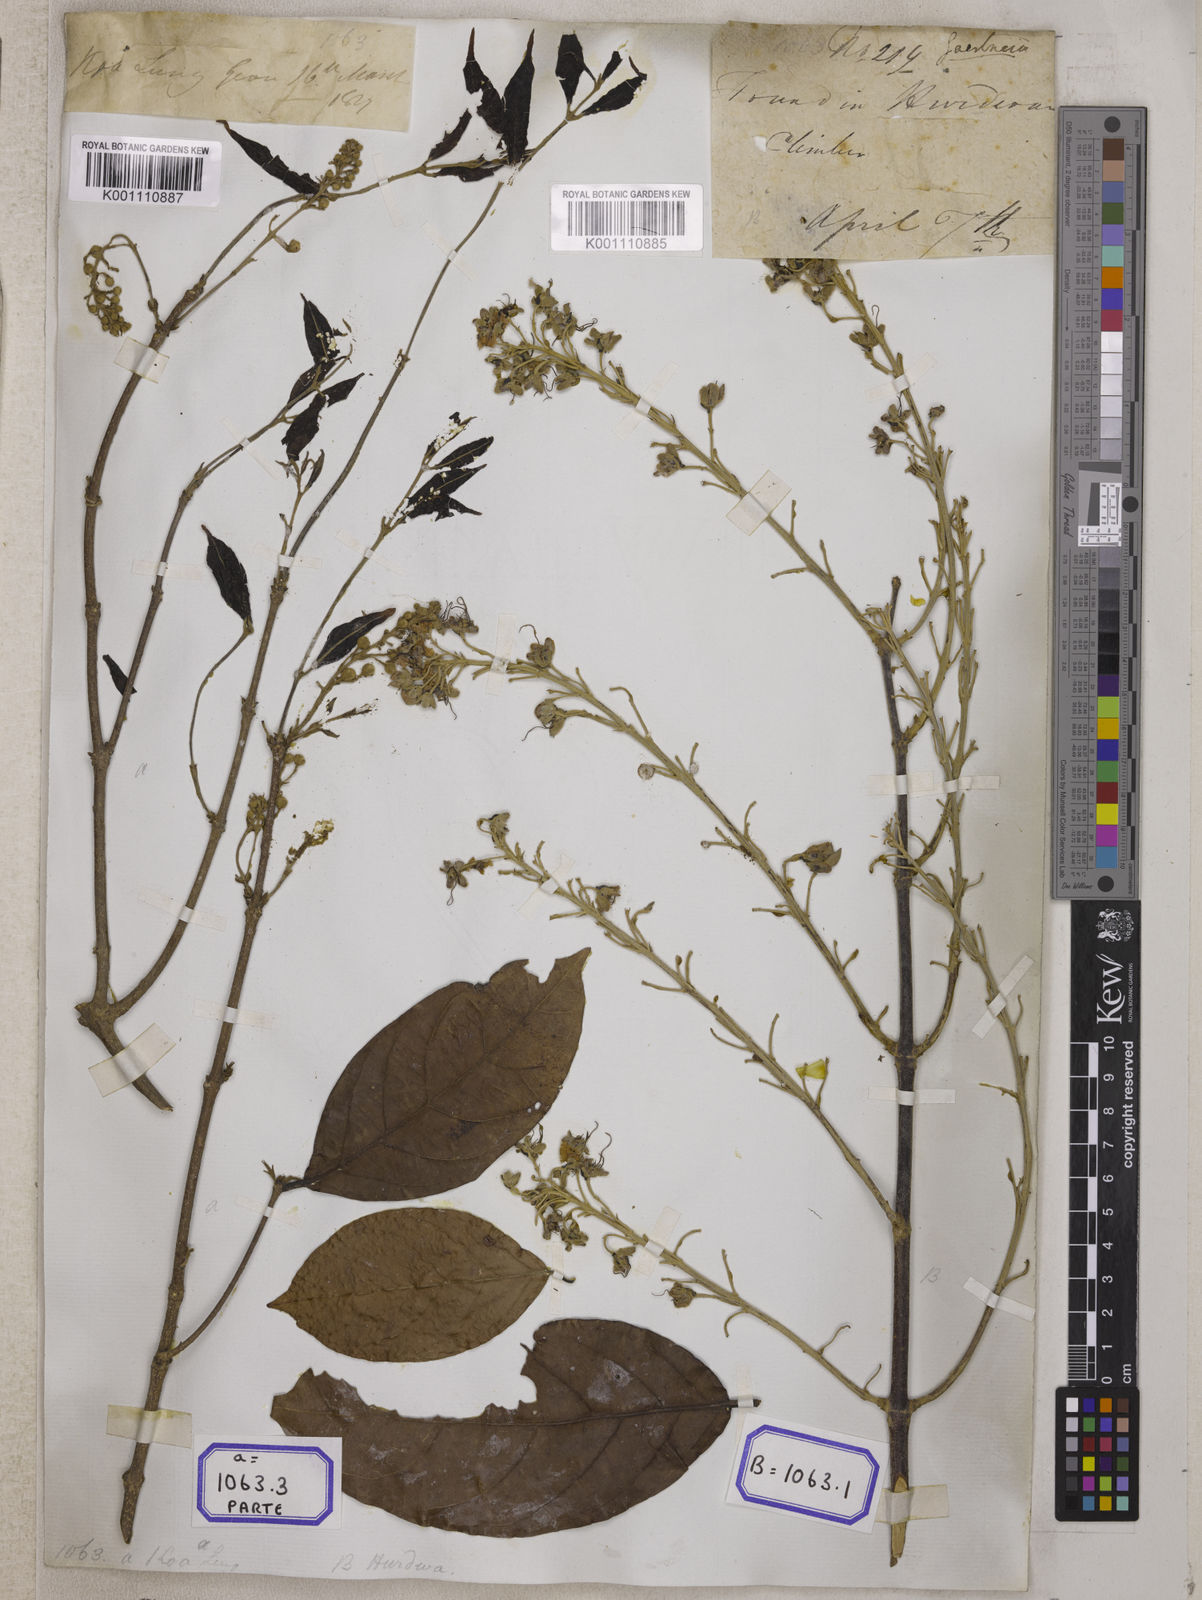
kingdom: Plantae
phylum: Tracheophyta
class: Magnoliopsida
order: Malpighiales
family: Malpighiaceae
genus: Hiptage
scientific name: Hiptage benghalensis
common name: Hiptage
